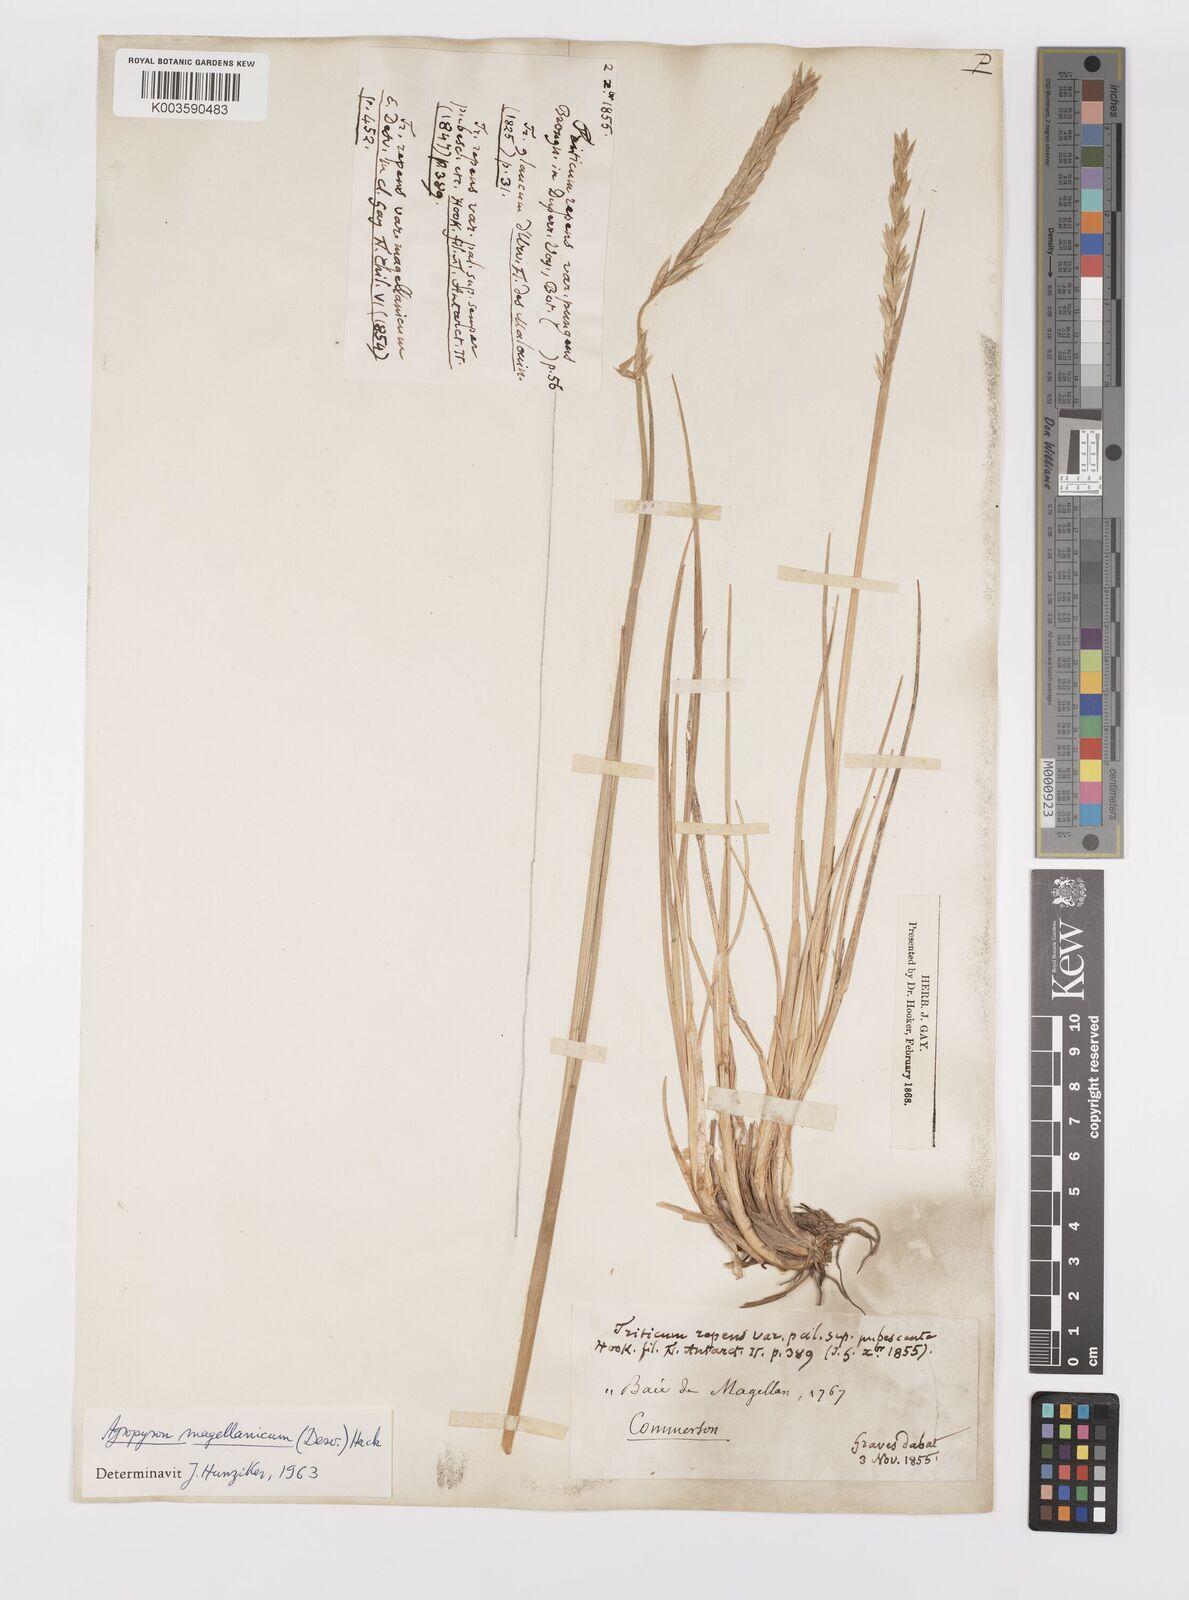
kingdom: Plantae
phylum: Tracheophyta
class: Liliopsida
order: Poales
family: Poaceae
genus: Elymus
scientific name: Elymus magellanicus
